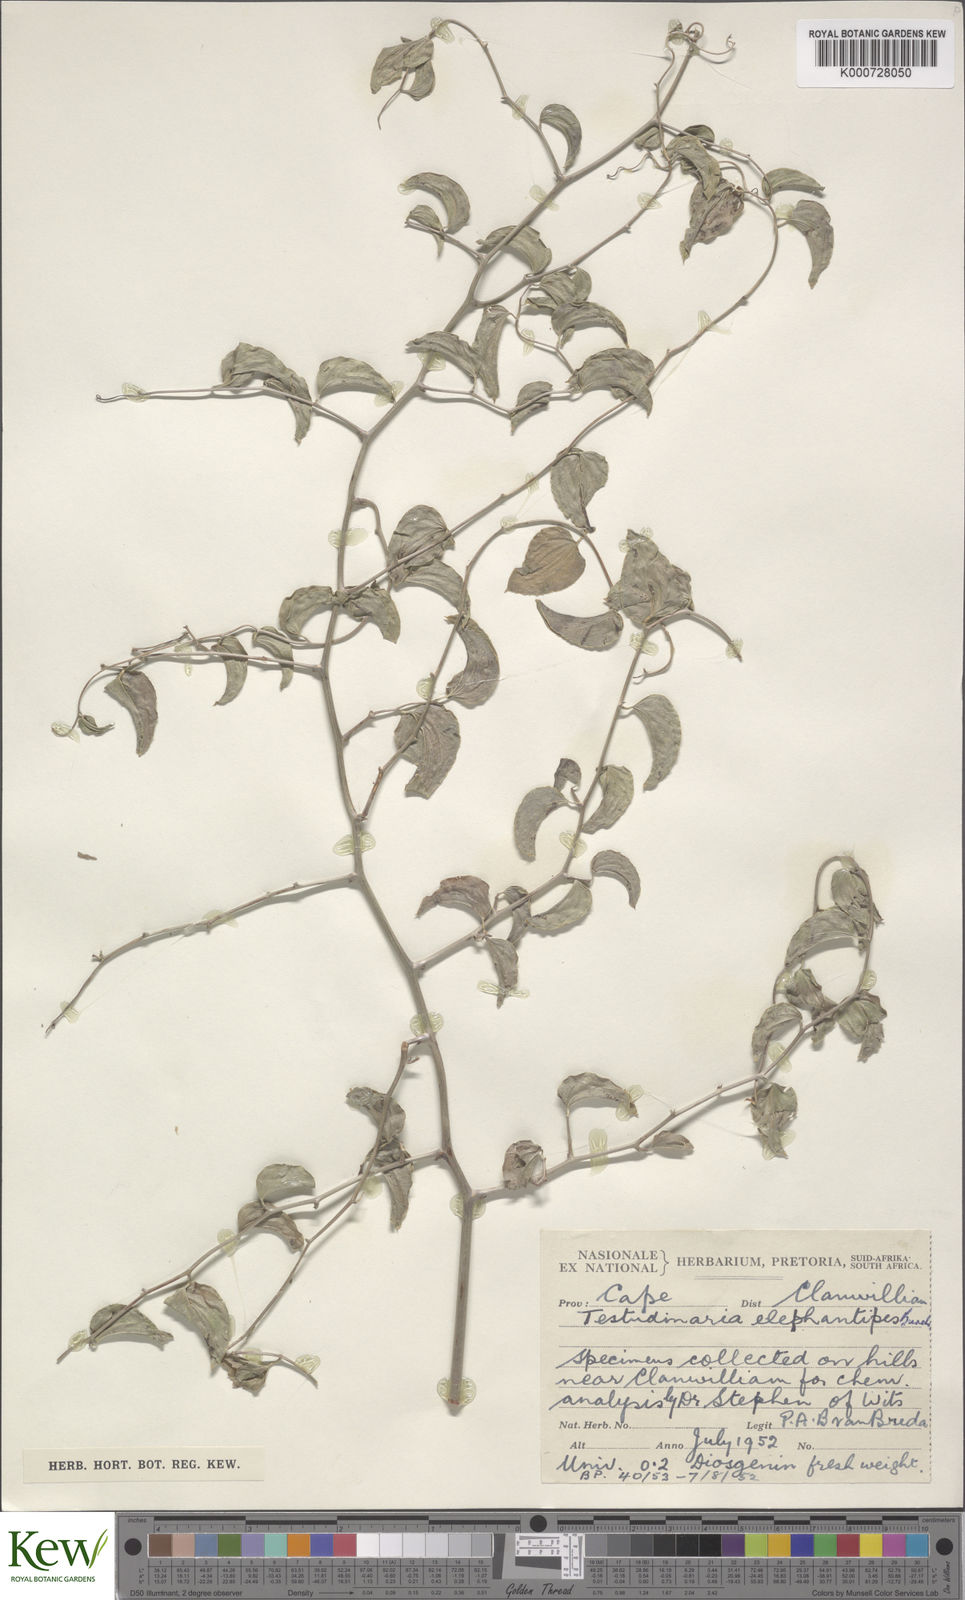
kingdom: Plantae
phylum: Tracheophyta
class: Liliopsida
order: Dioscoreales
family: Dioscoreaceae
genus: Dioscorea
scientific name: Dioscorea
